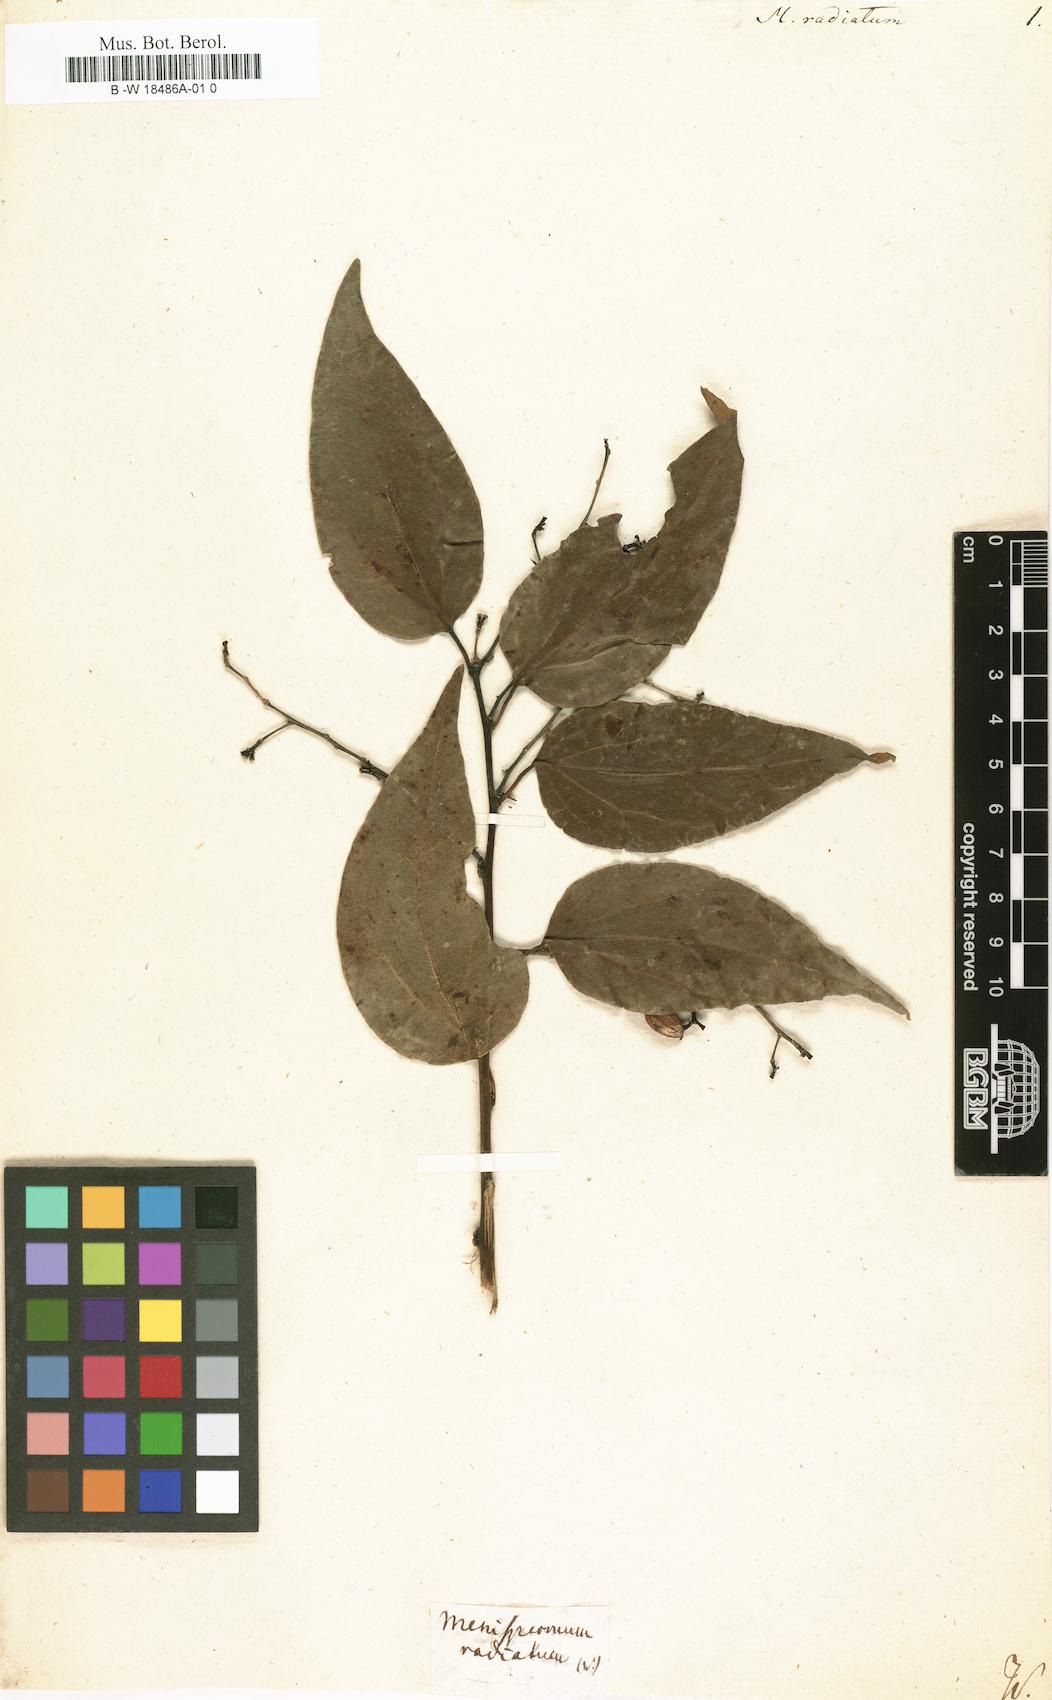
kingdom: Plantae
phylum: Tracheophyta
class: Magnoliopsida
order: Ranunculales
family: Menispermaceae
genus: Tiliacora
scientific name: Tiliacora acuminata
